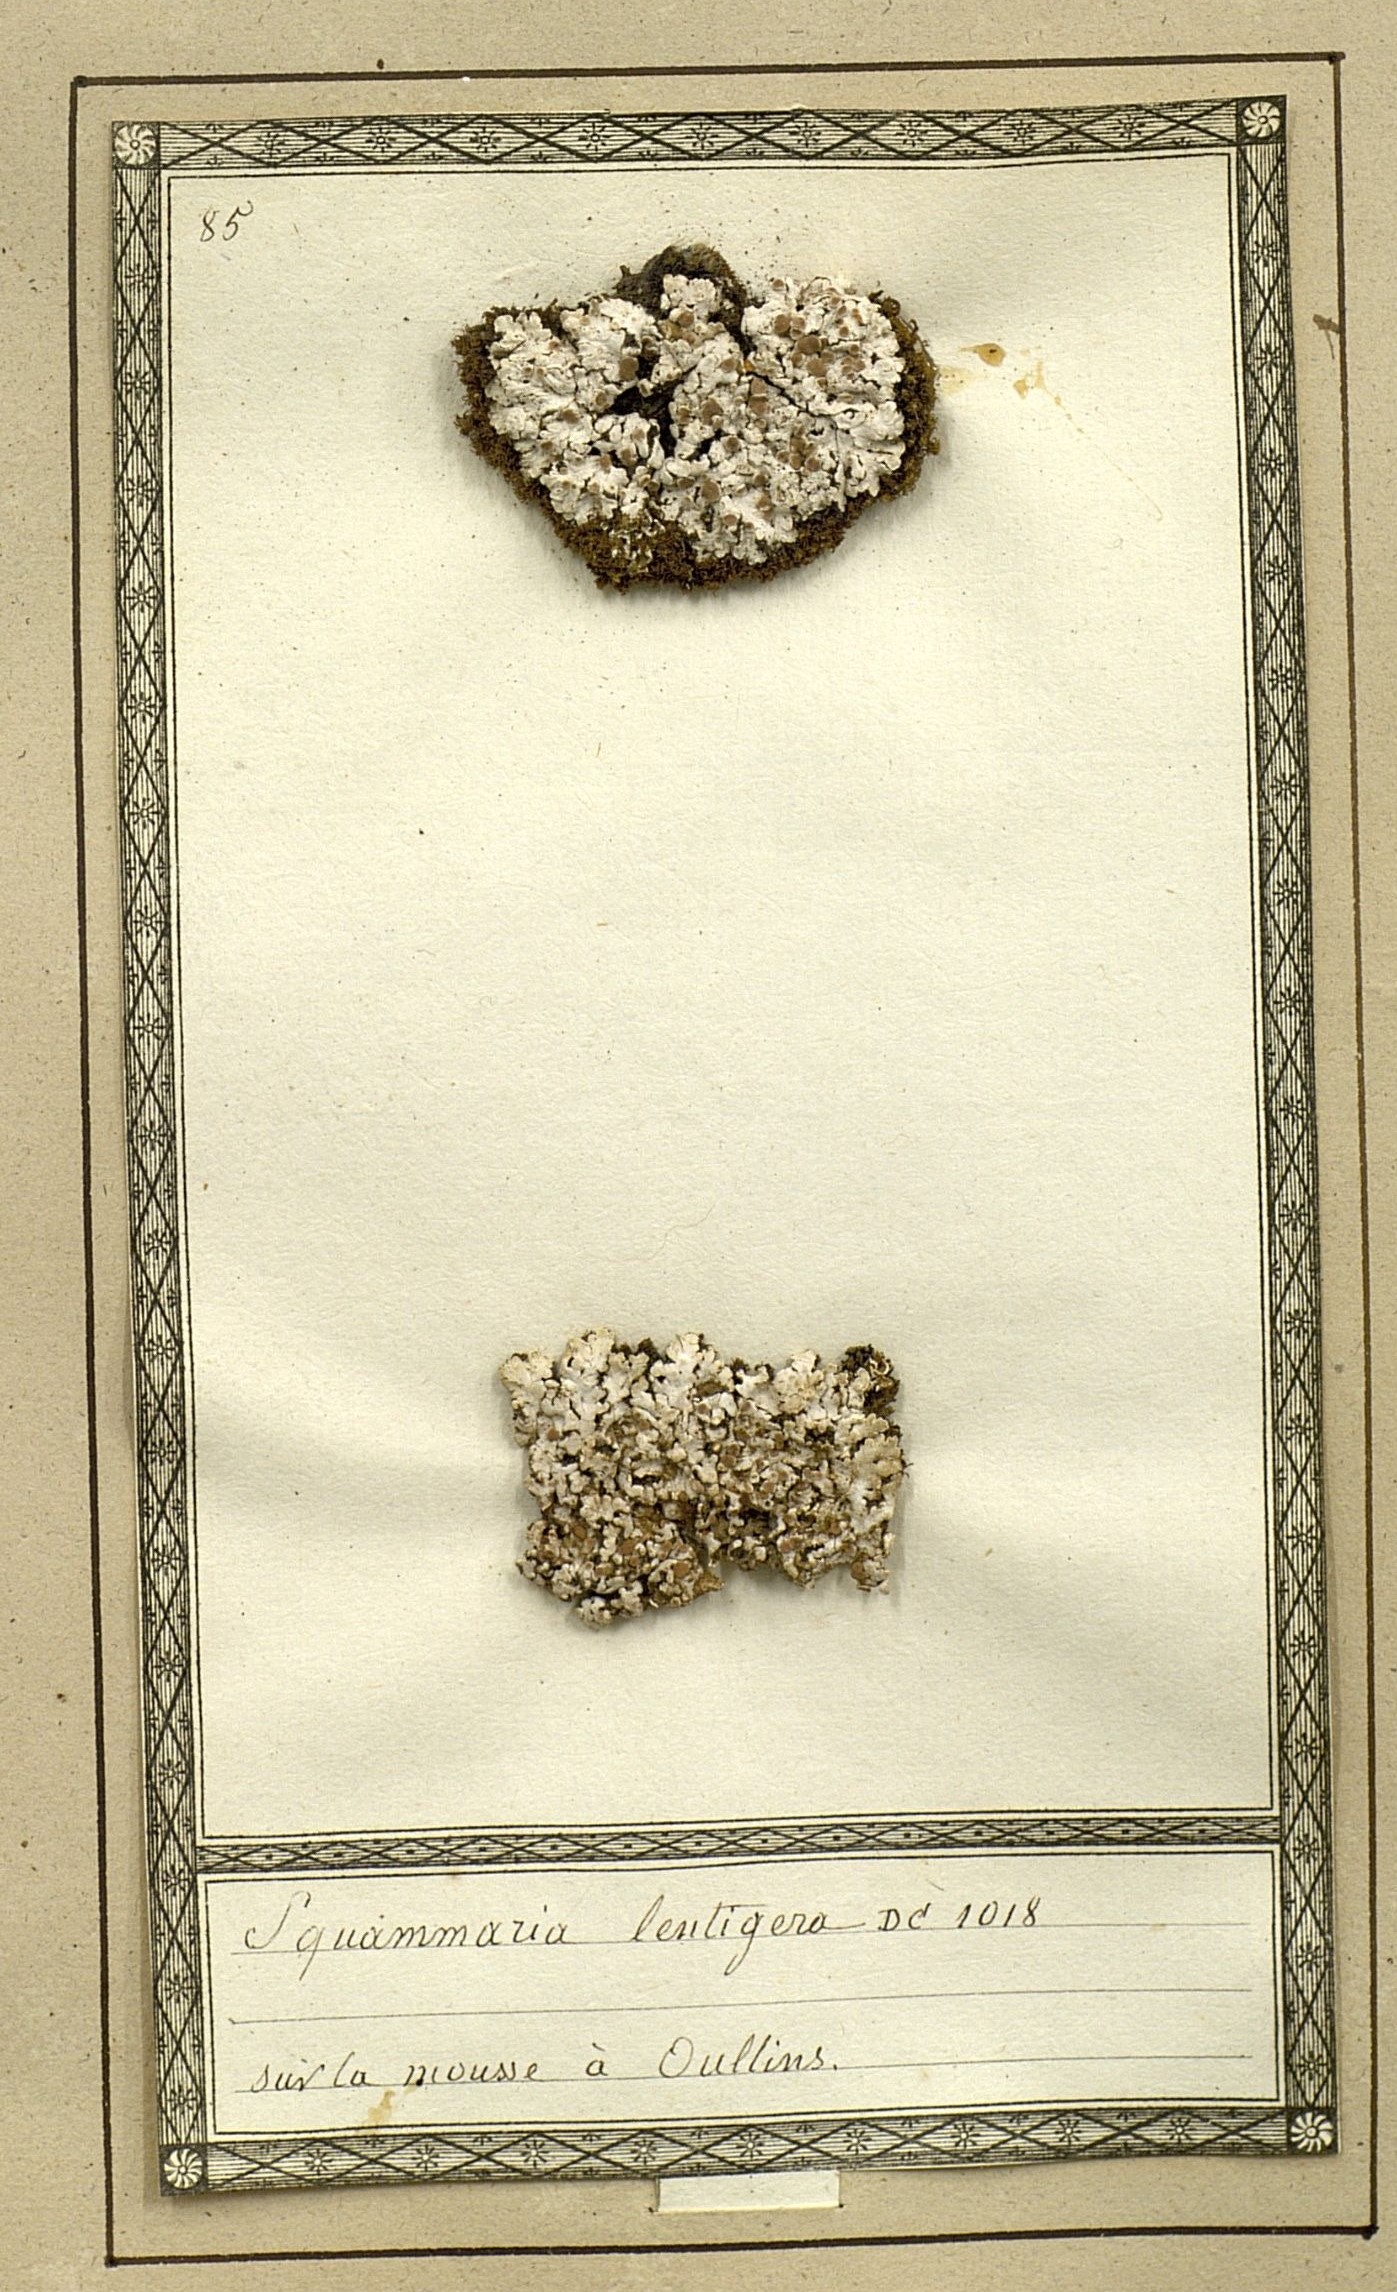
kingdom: Fungi
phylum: Ascomycota
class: Lecanoromycetes
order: Lecanorales
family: Stereocaulaceae
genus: Squamarina
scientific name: Squamarina lentigera
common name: Scaly breck-lichen
